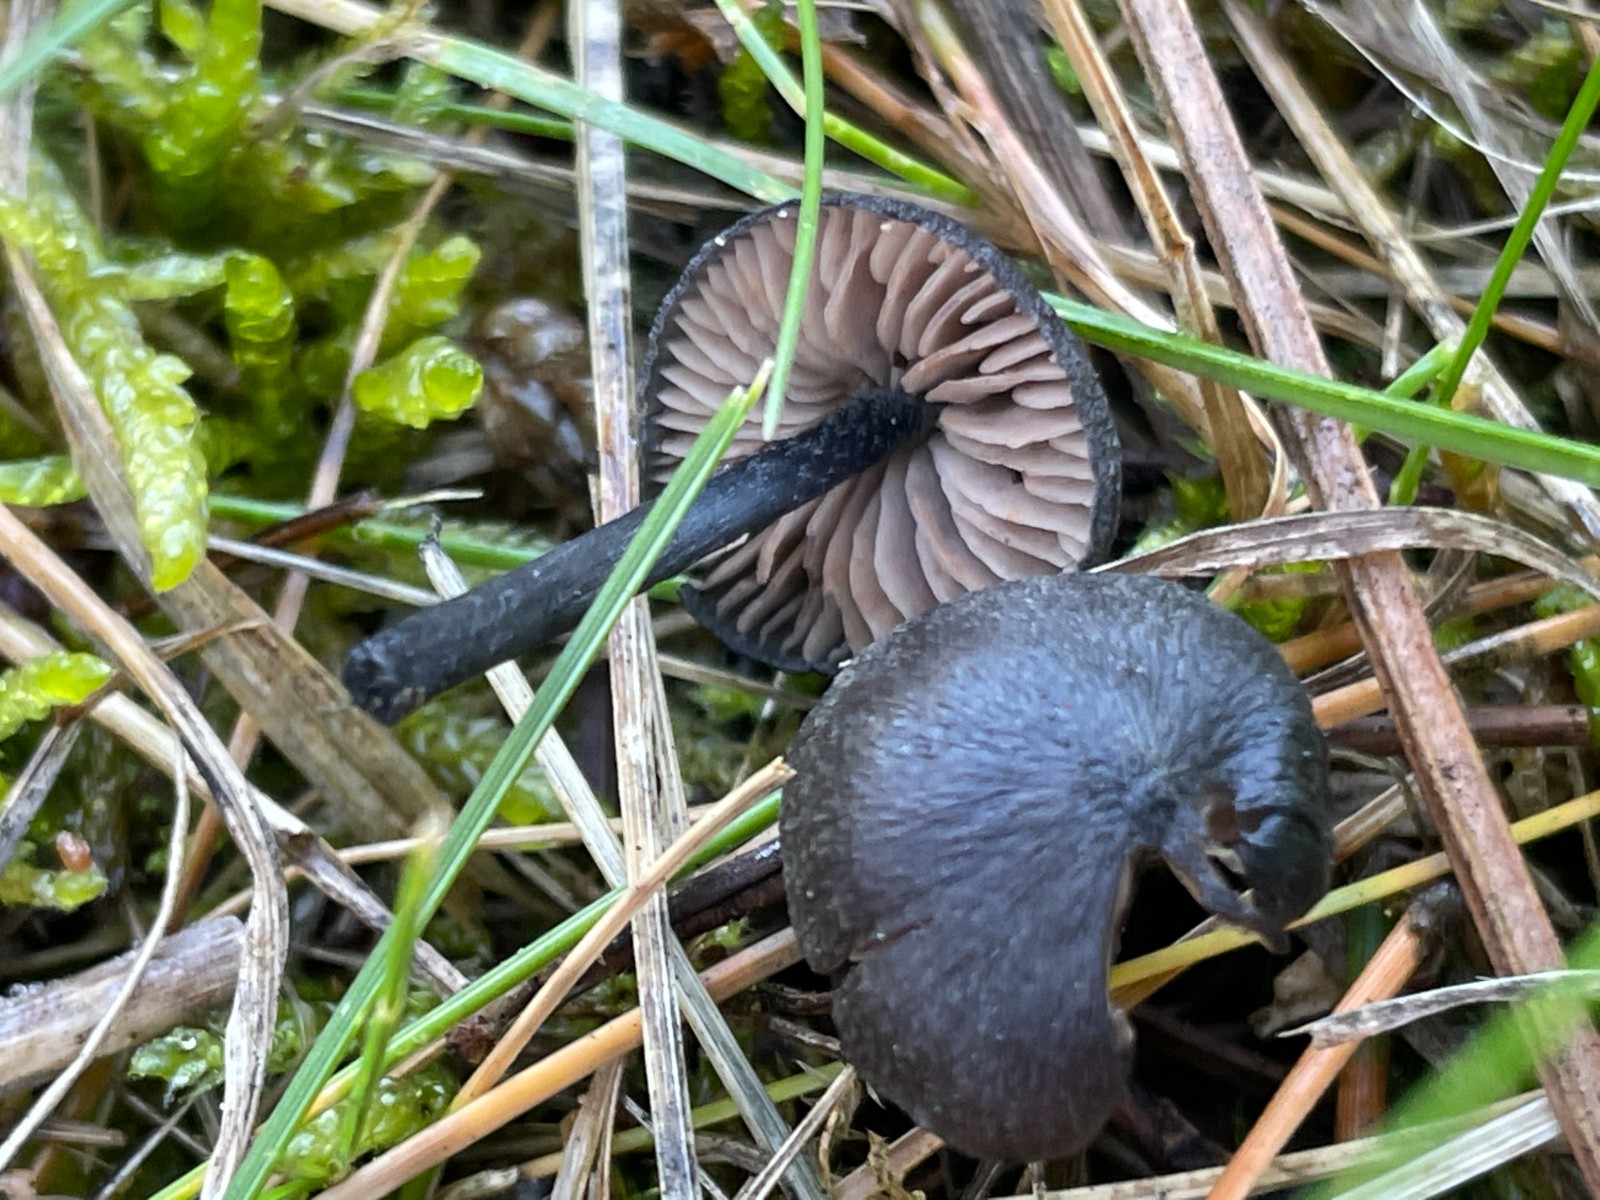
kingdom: Fungi
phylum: Basidiomycota
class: Agaricomycetes
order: Agaricales
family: Entolomataceae
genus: Entoloma
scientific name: Entoloma
